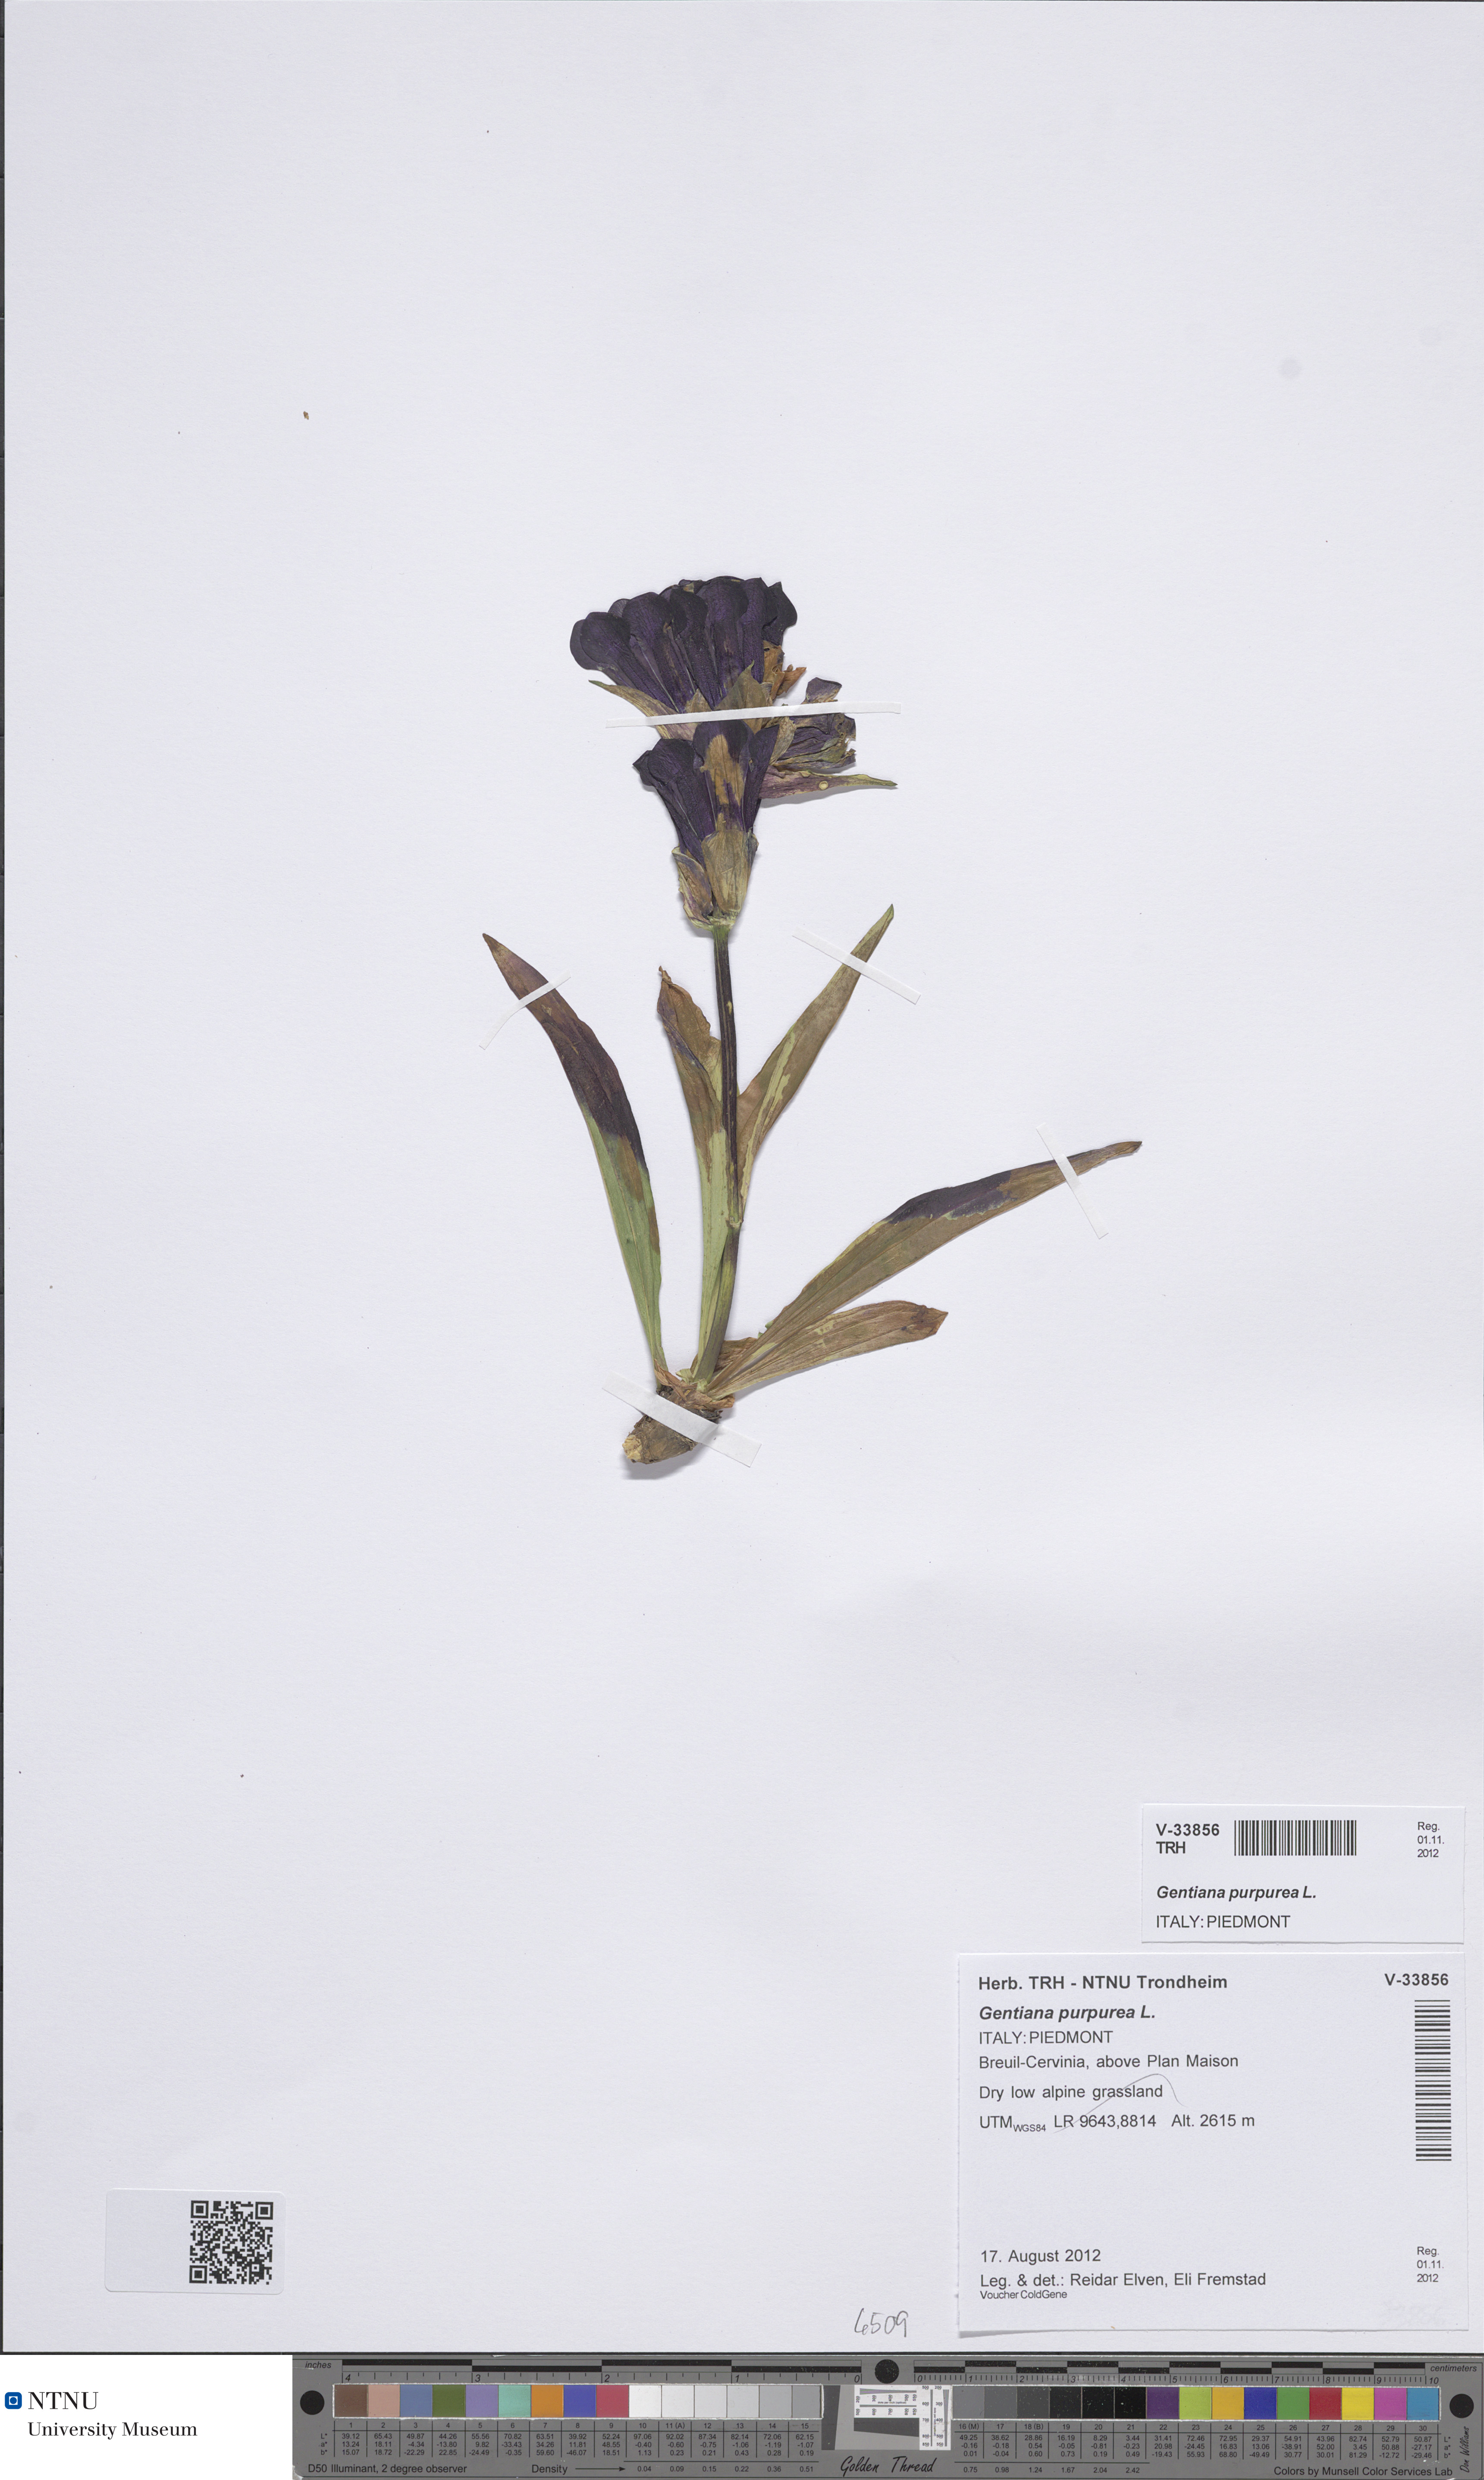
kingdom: Plantae
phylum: Tracheophyta
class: Magnoliopsida
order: Gentianales
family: Gentianaceae
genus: Gentiana
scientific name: Gentiana purpurea
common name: Purple gentian
